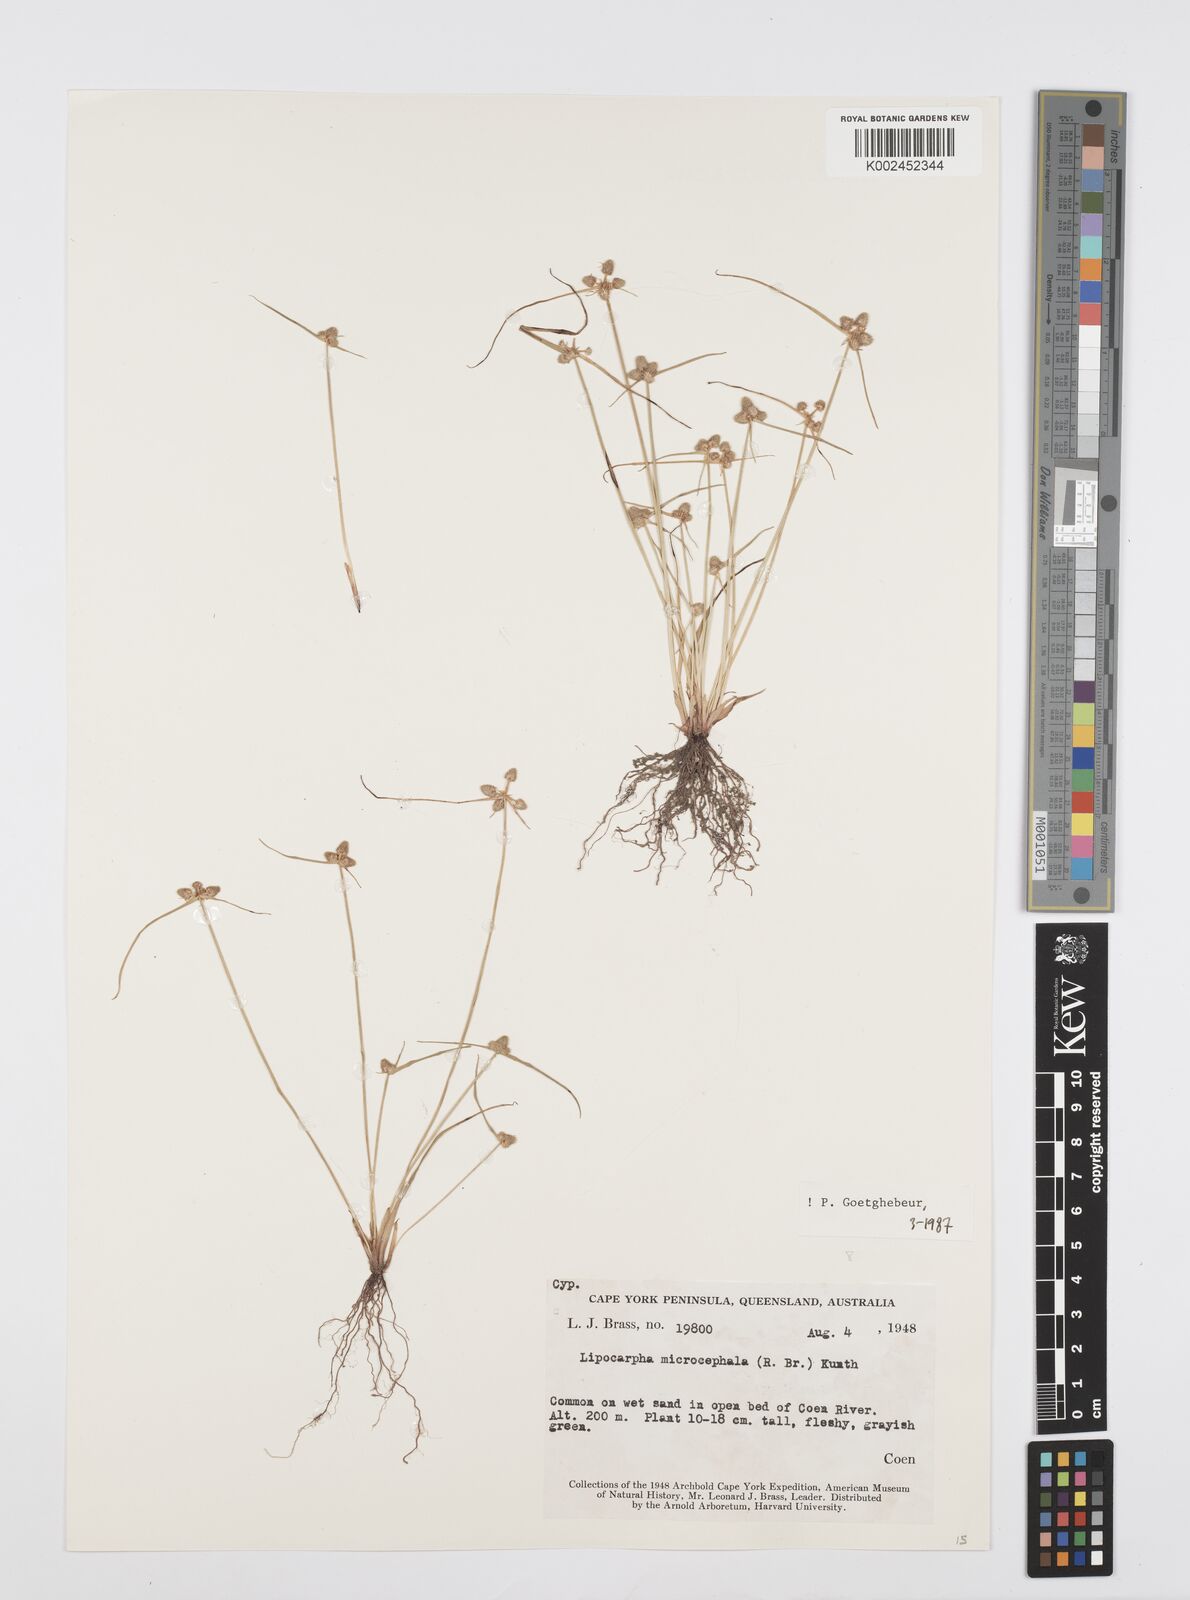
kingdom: Plantae
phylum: Tracheophyta
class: Liliopsida
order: Poales
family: Cyperaceae
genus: Cyperus
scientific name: Cyperus microcephalus
